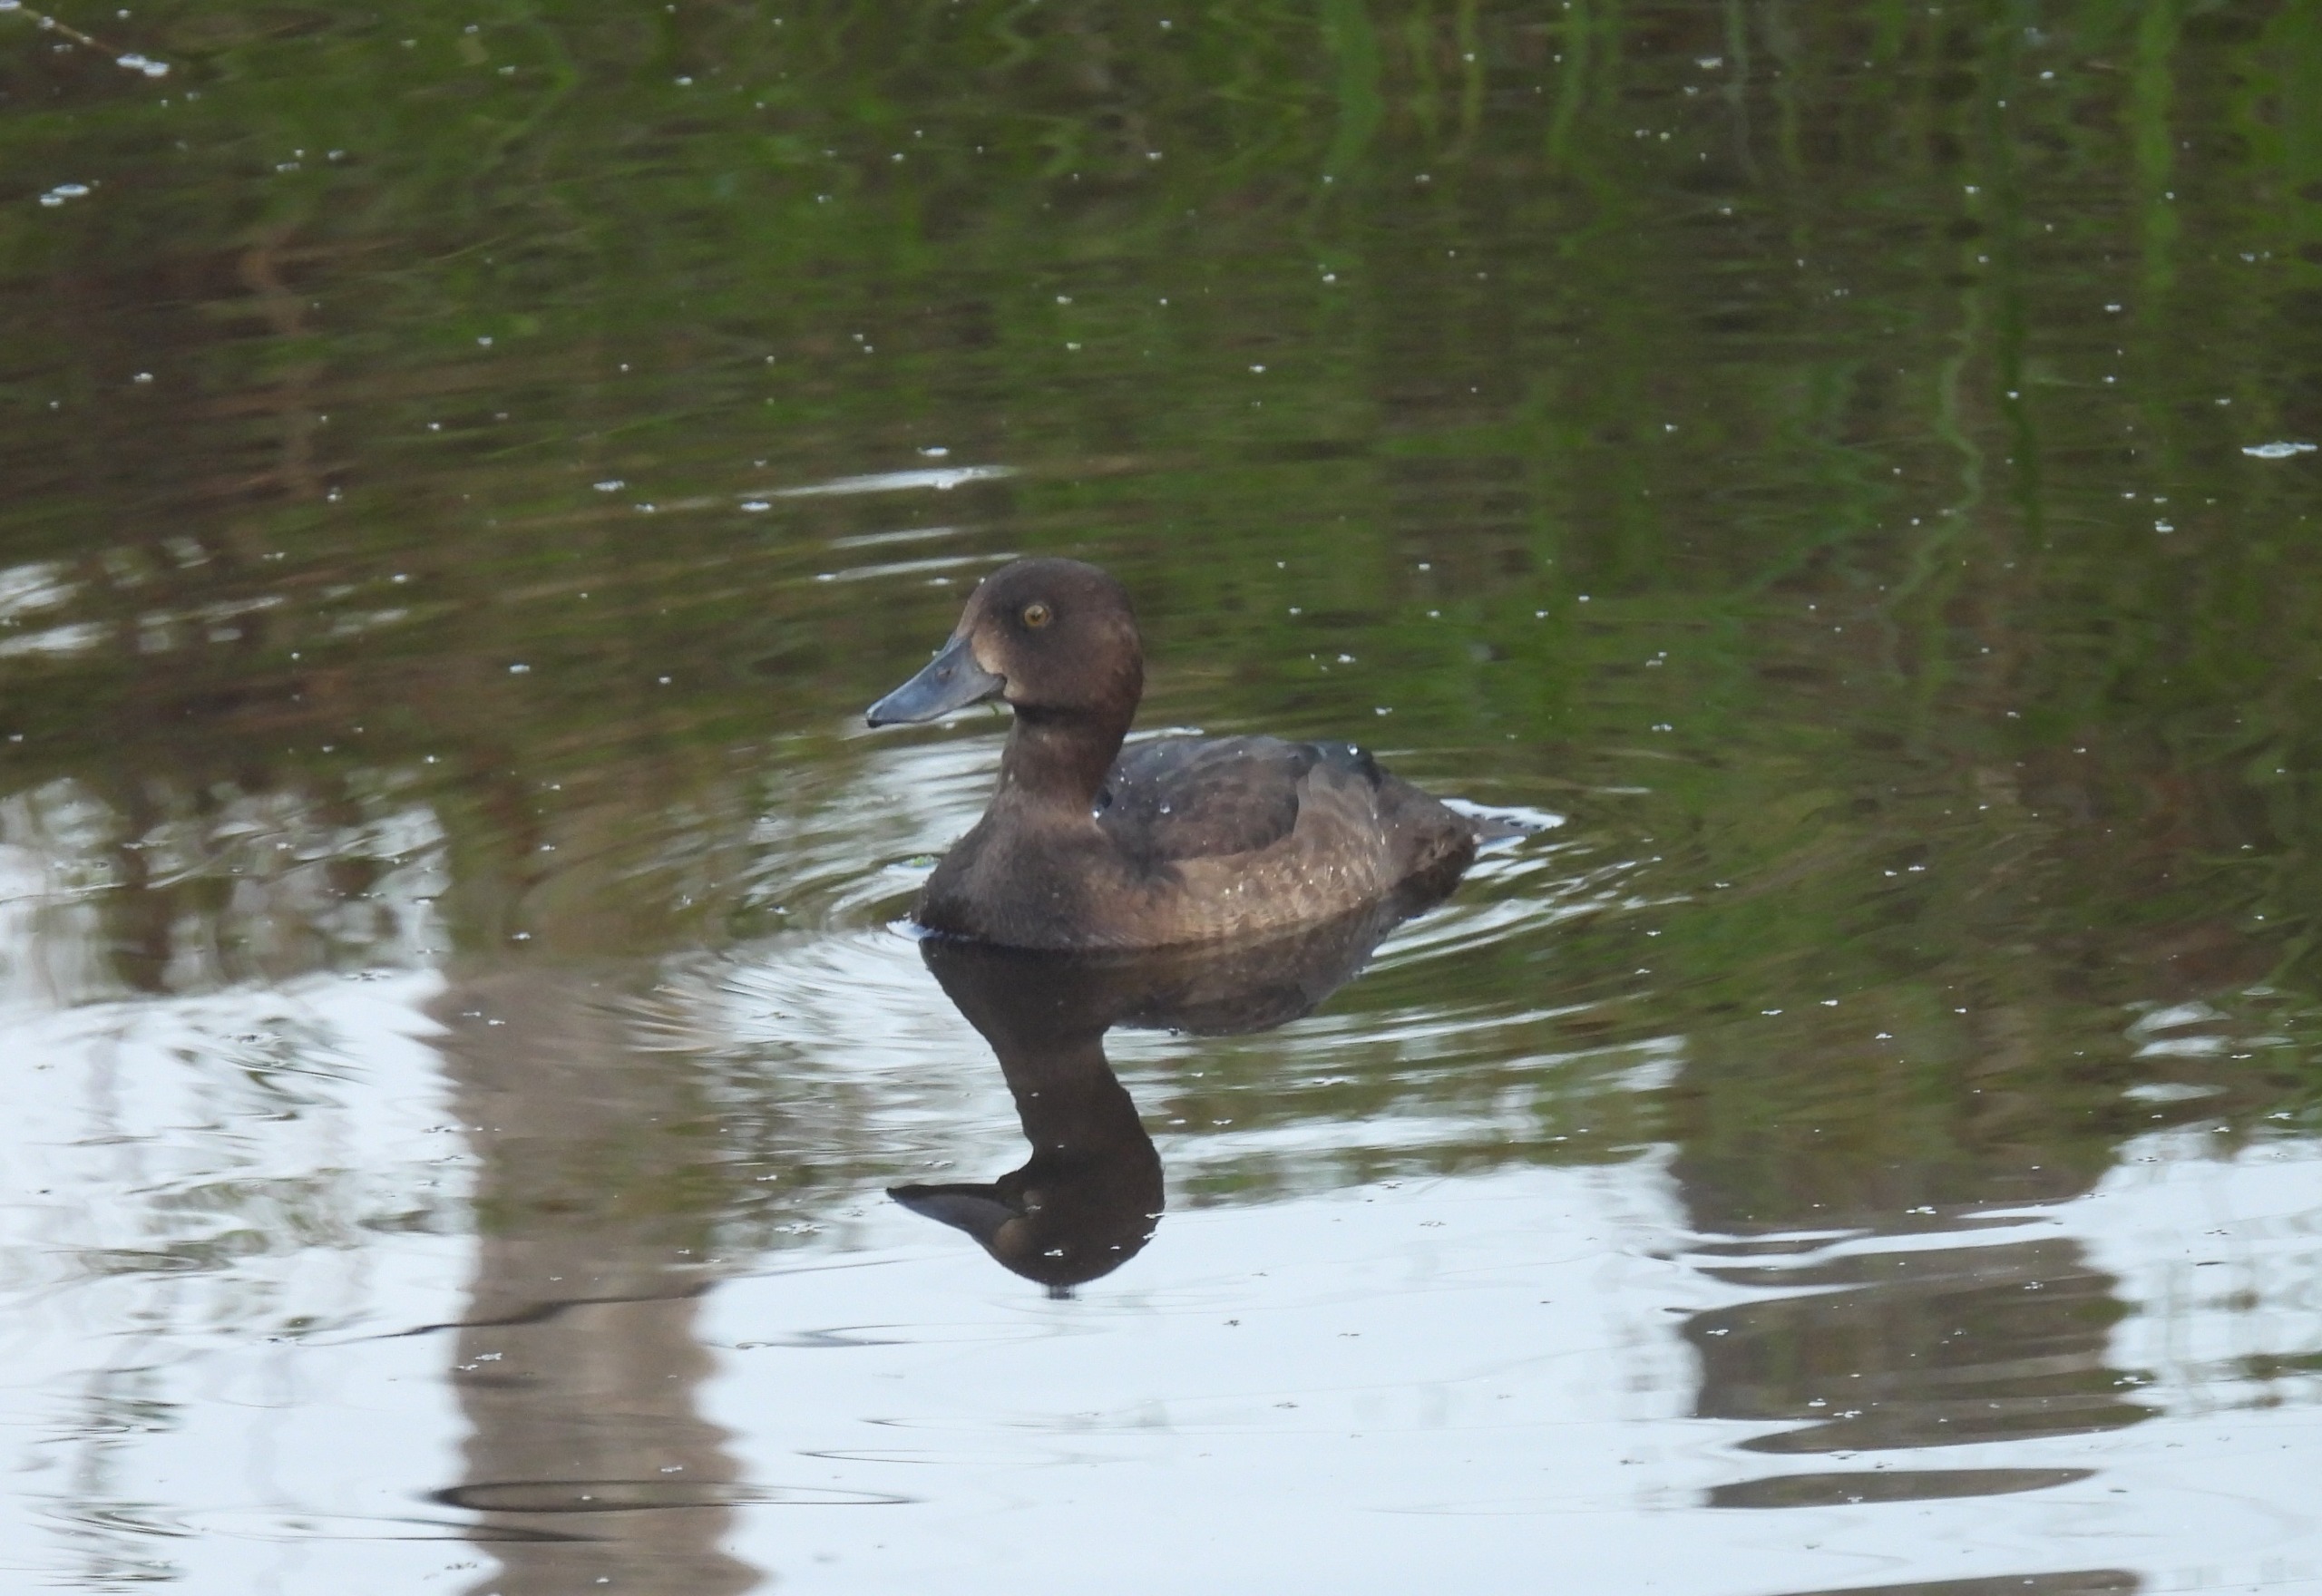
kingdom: Animalia
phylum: Chordata
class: Aves
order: Anseriformes
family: Anatidae
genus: Aythya
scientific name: Aythya fuligula
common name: Troldand
